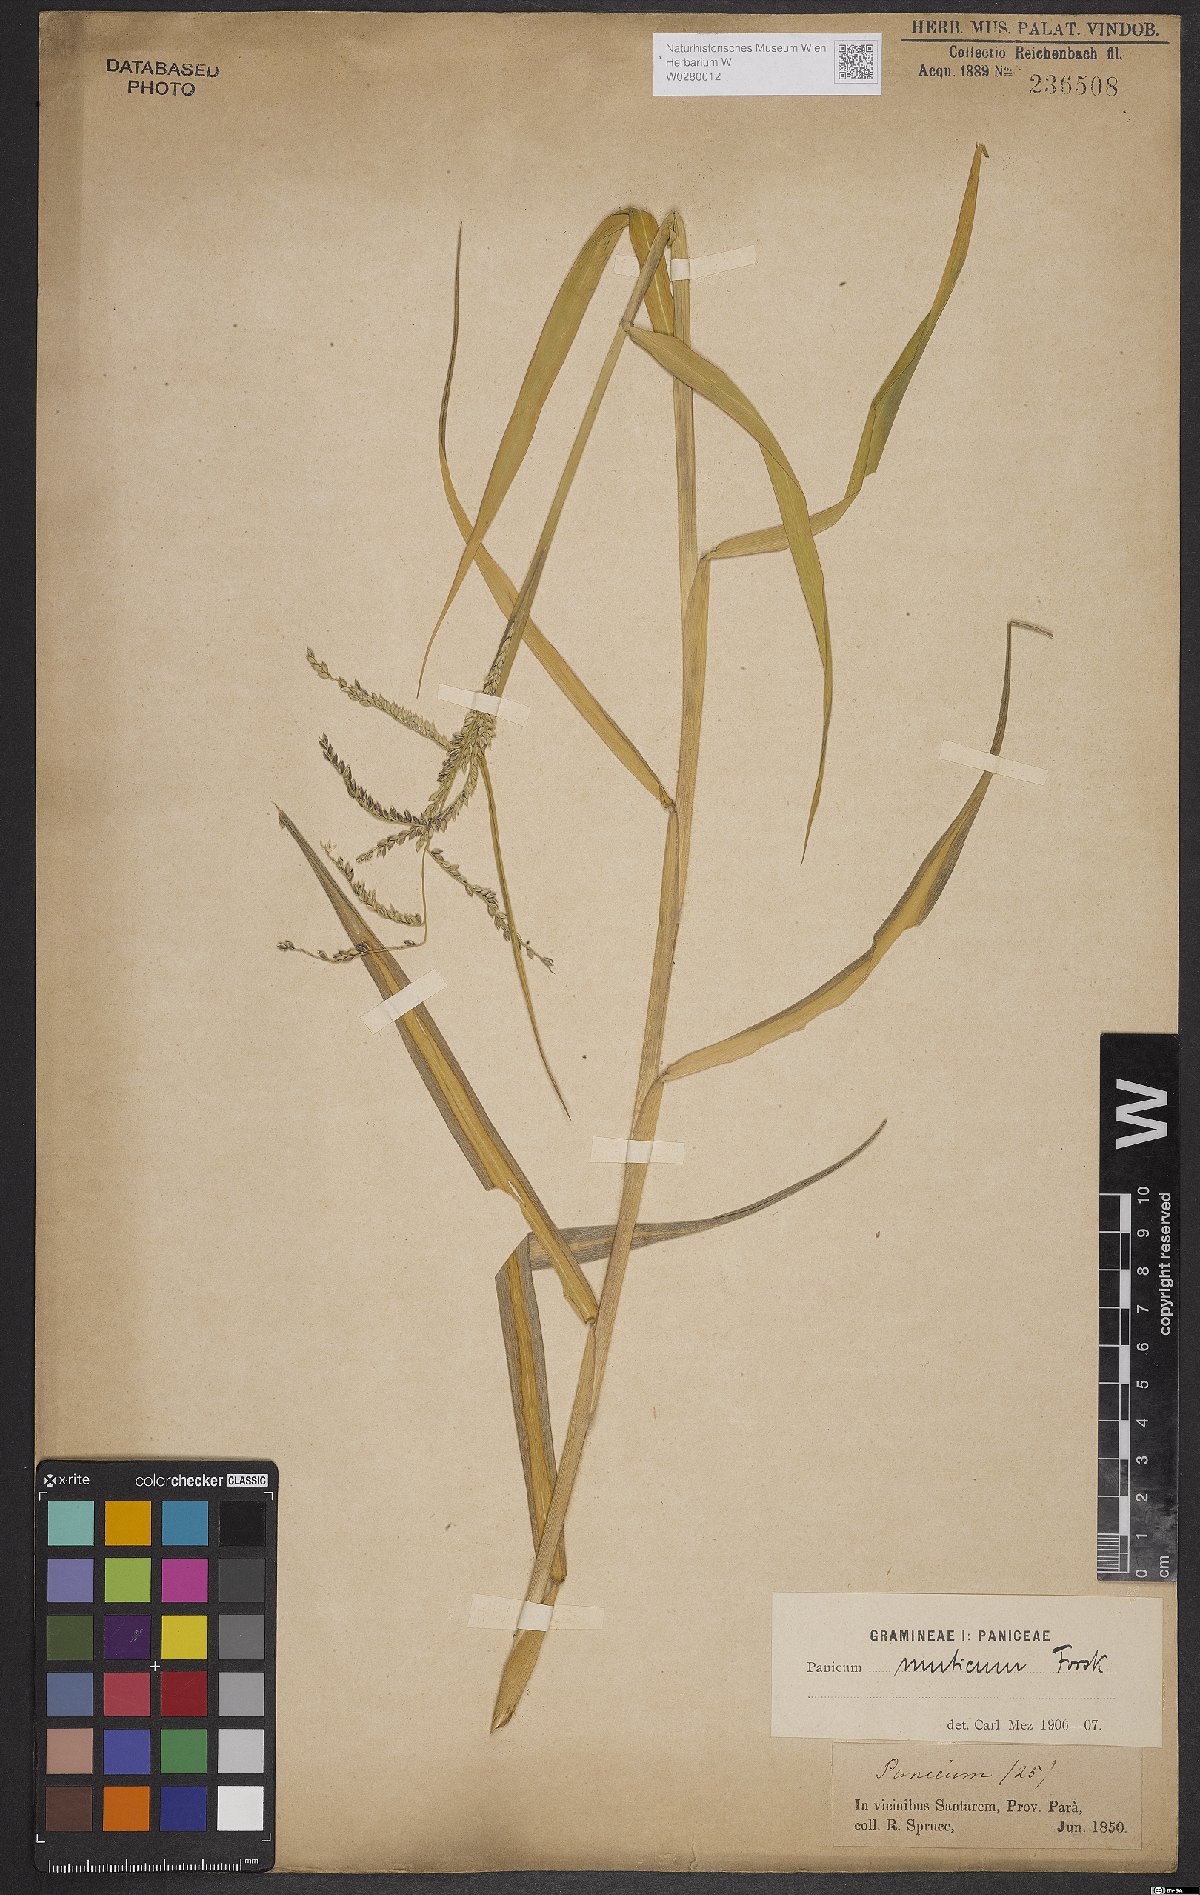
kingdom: Plantae
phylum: Tracheophyta
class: Liliopsida
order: Poales
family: Poaceae
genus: Urochloa
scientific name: Urochloa mutica
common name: Para grass
